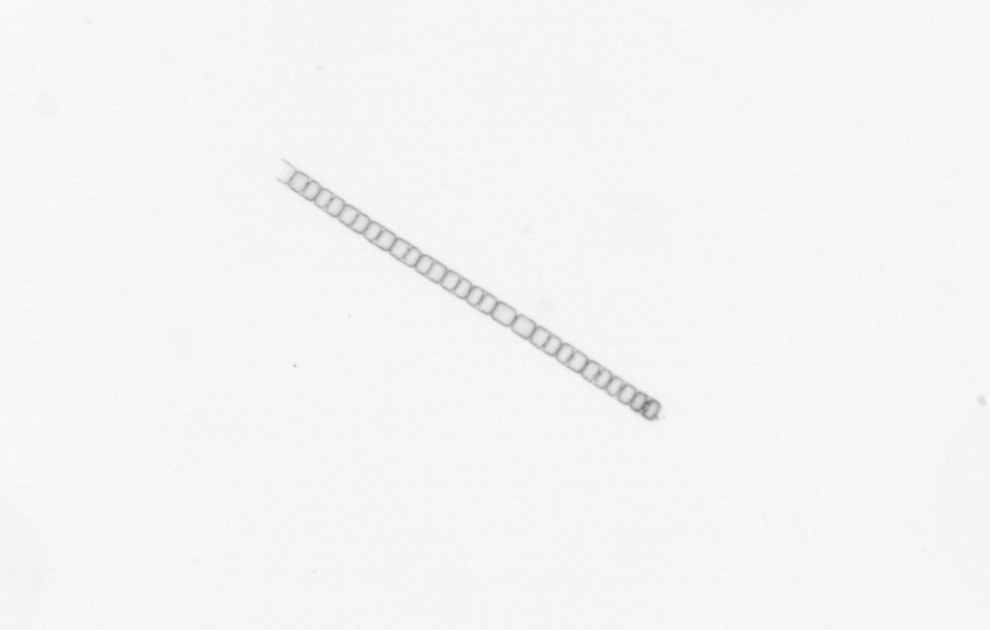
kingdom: Chromista
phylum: Ochrophyta
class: Bacillariophyceae
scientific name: Bacillariophyceae
